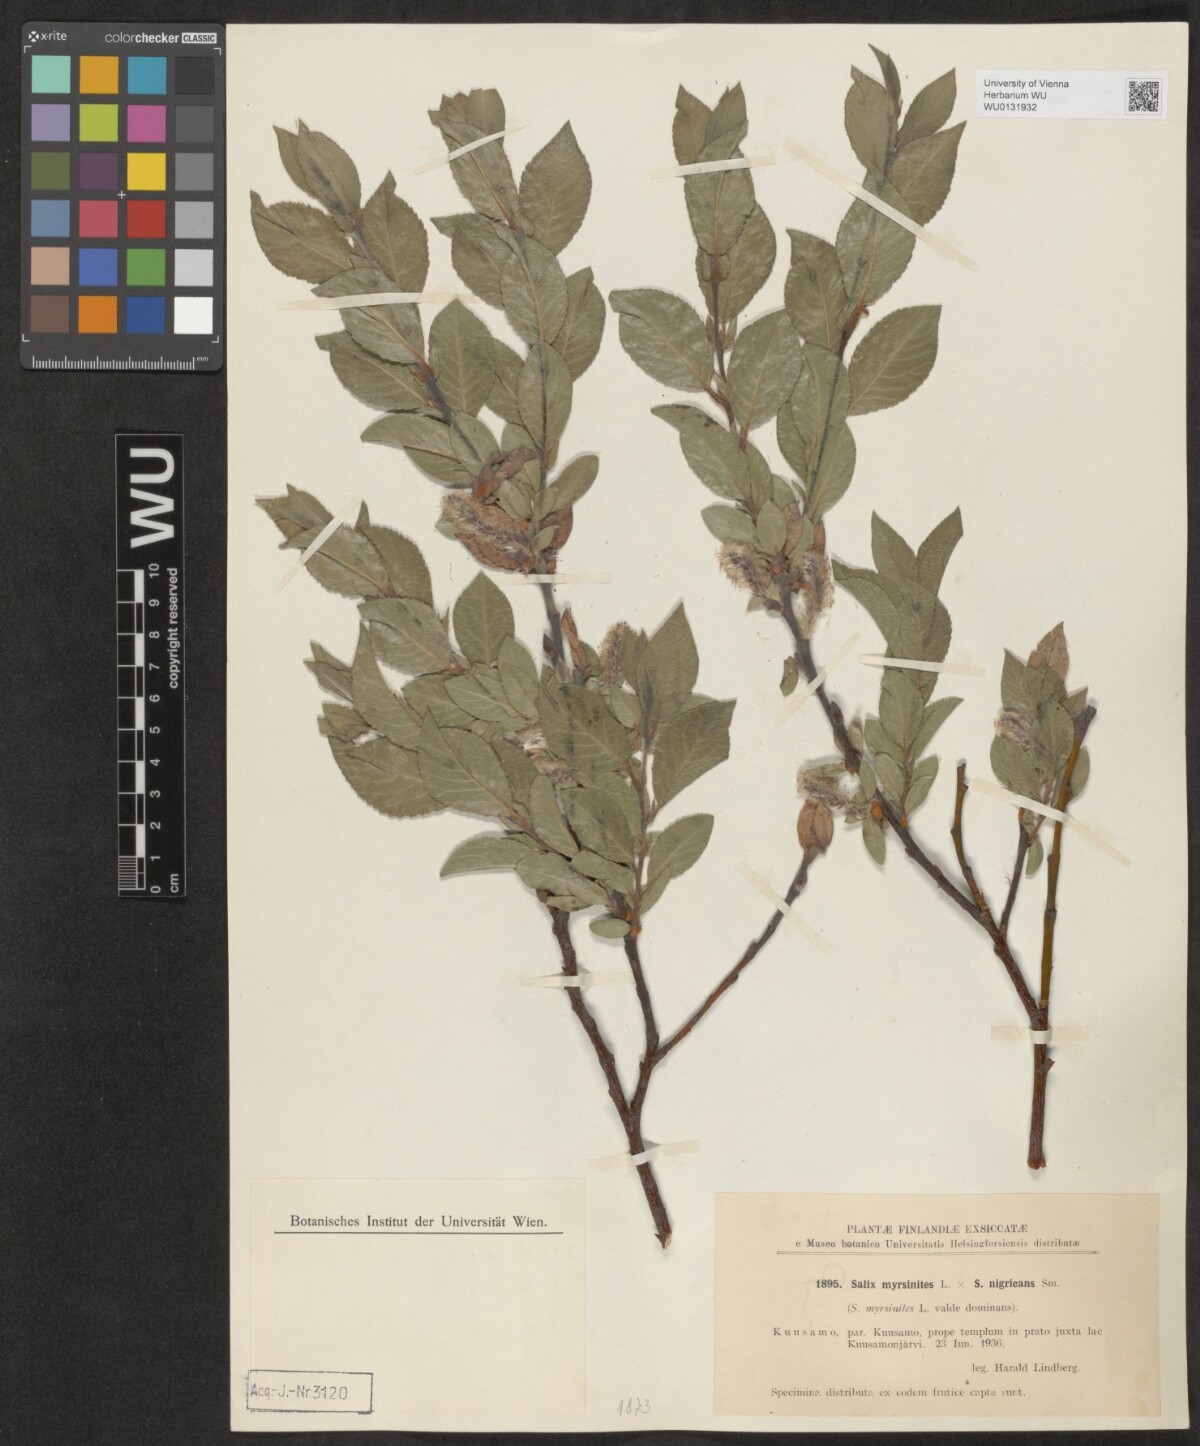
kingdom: Plantae
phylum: Tracheophyta
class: Magnoliopsida
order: Malpighiales
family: Salicaceae
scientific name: Salicaceae
